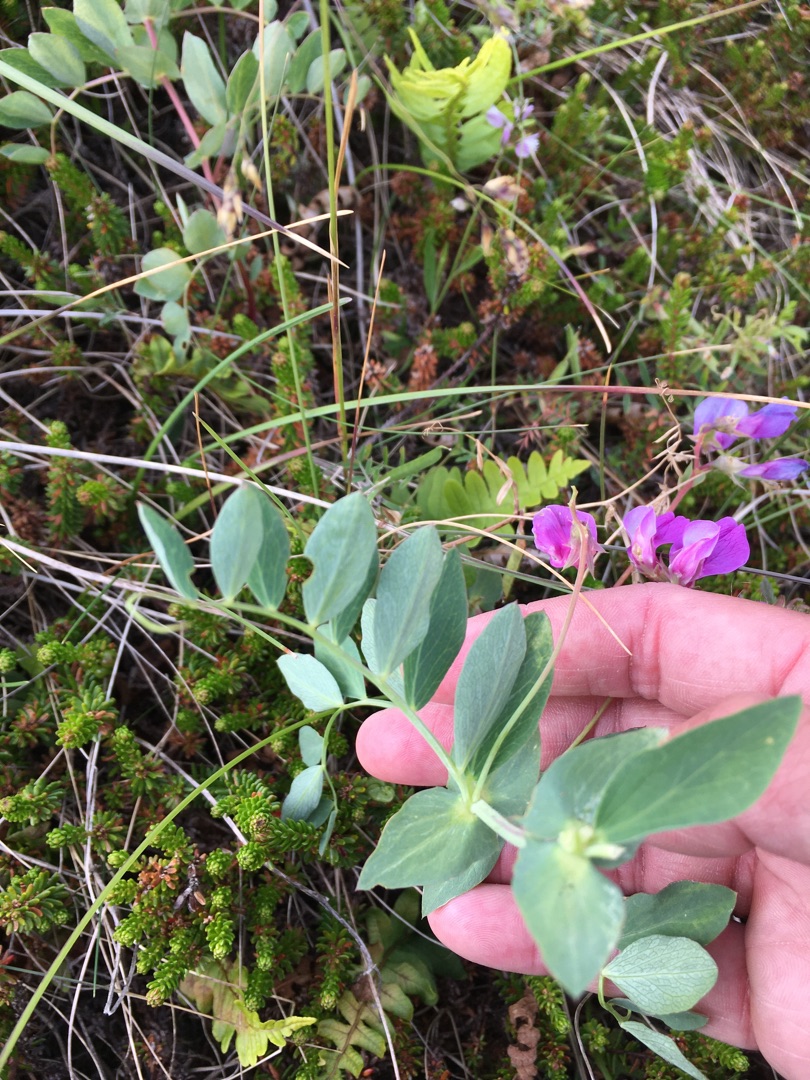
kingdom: Plantae
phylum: Tracheophyta
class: Magnoliopsida
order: Fabales
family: Fabaceae
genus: Lathyrus
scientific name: Lathyrus japonicus
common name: Strand-fladbælg
